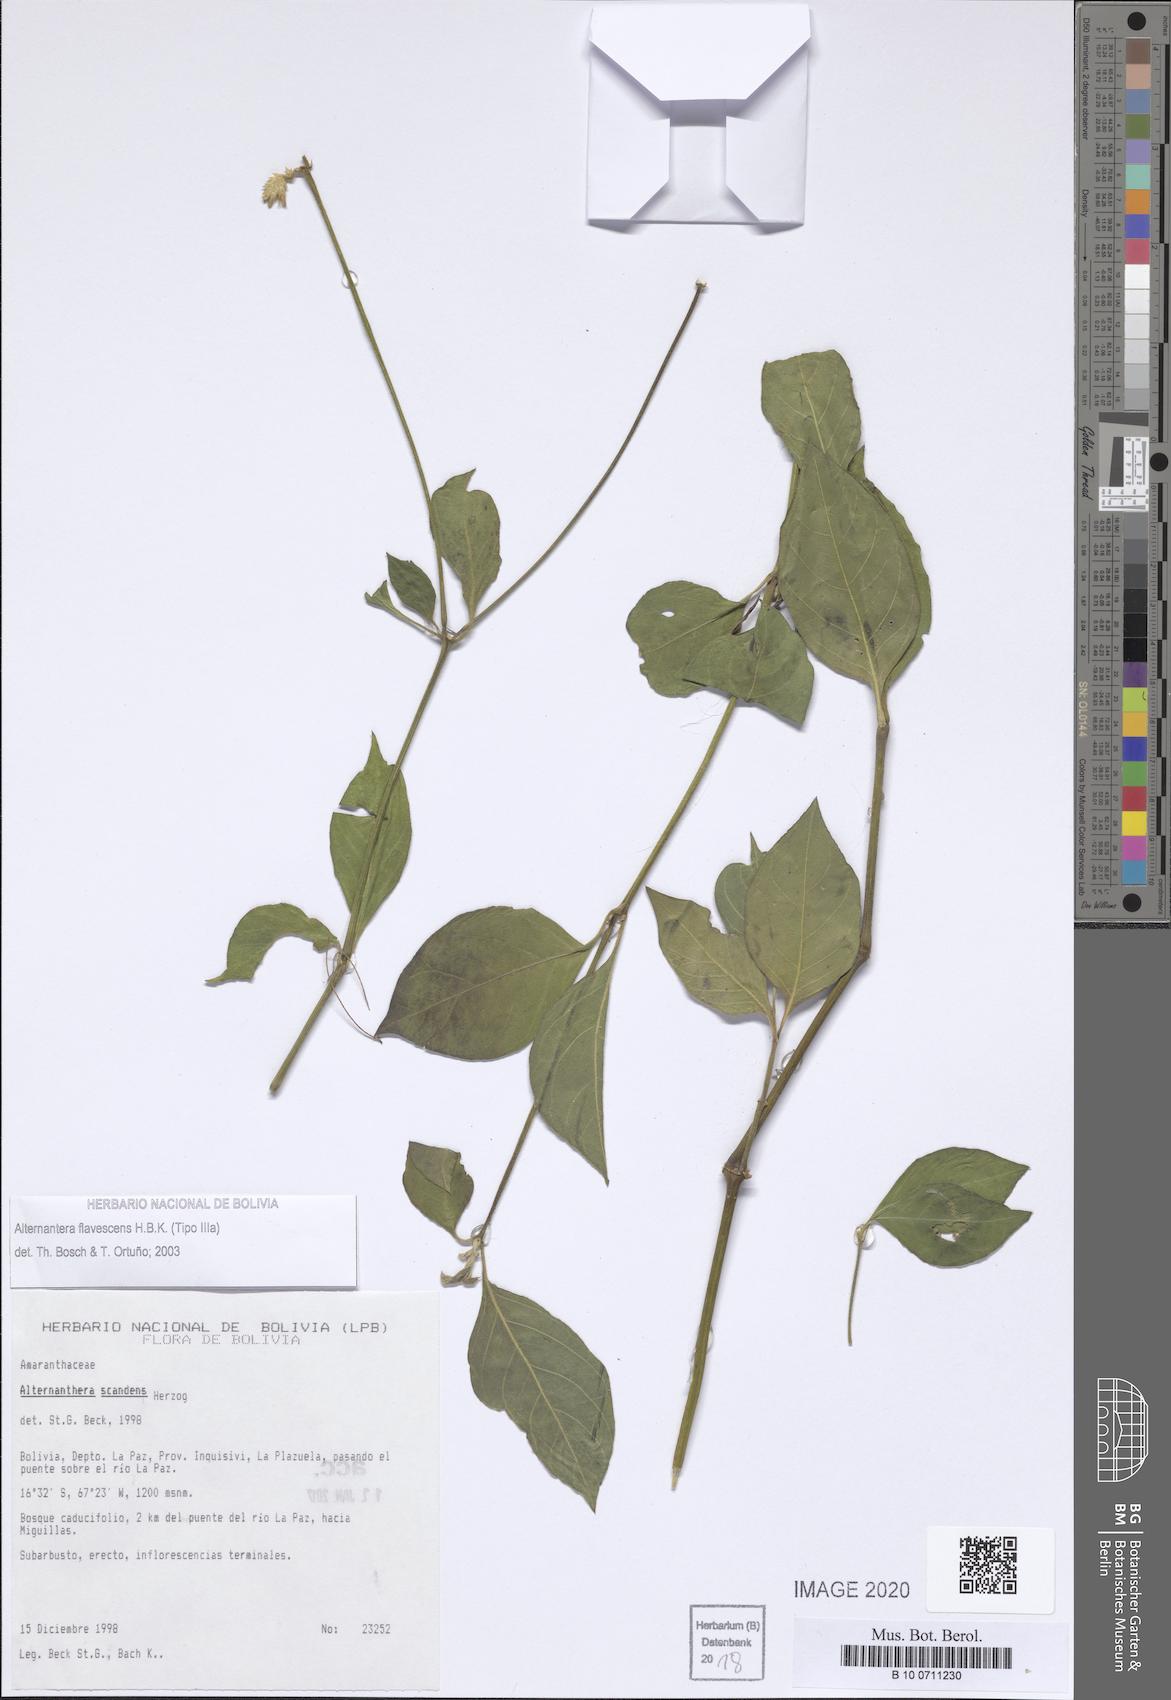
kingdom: Plantae
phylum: Tracheophyta
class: Magnoliopsida
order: Caryophyllales
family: Amaranthaceae
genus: Alternanthera
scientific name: Alternanthera flavescens
